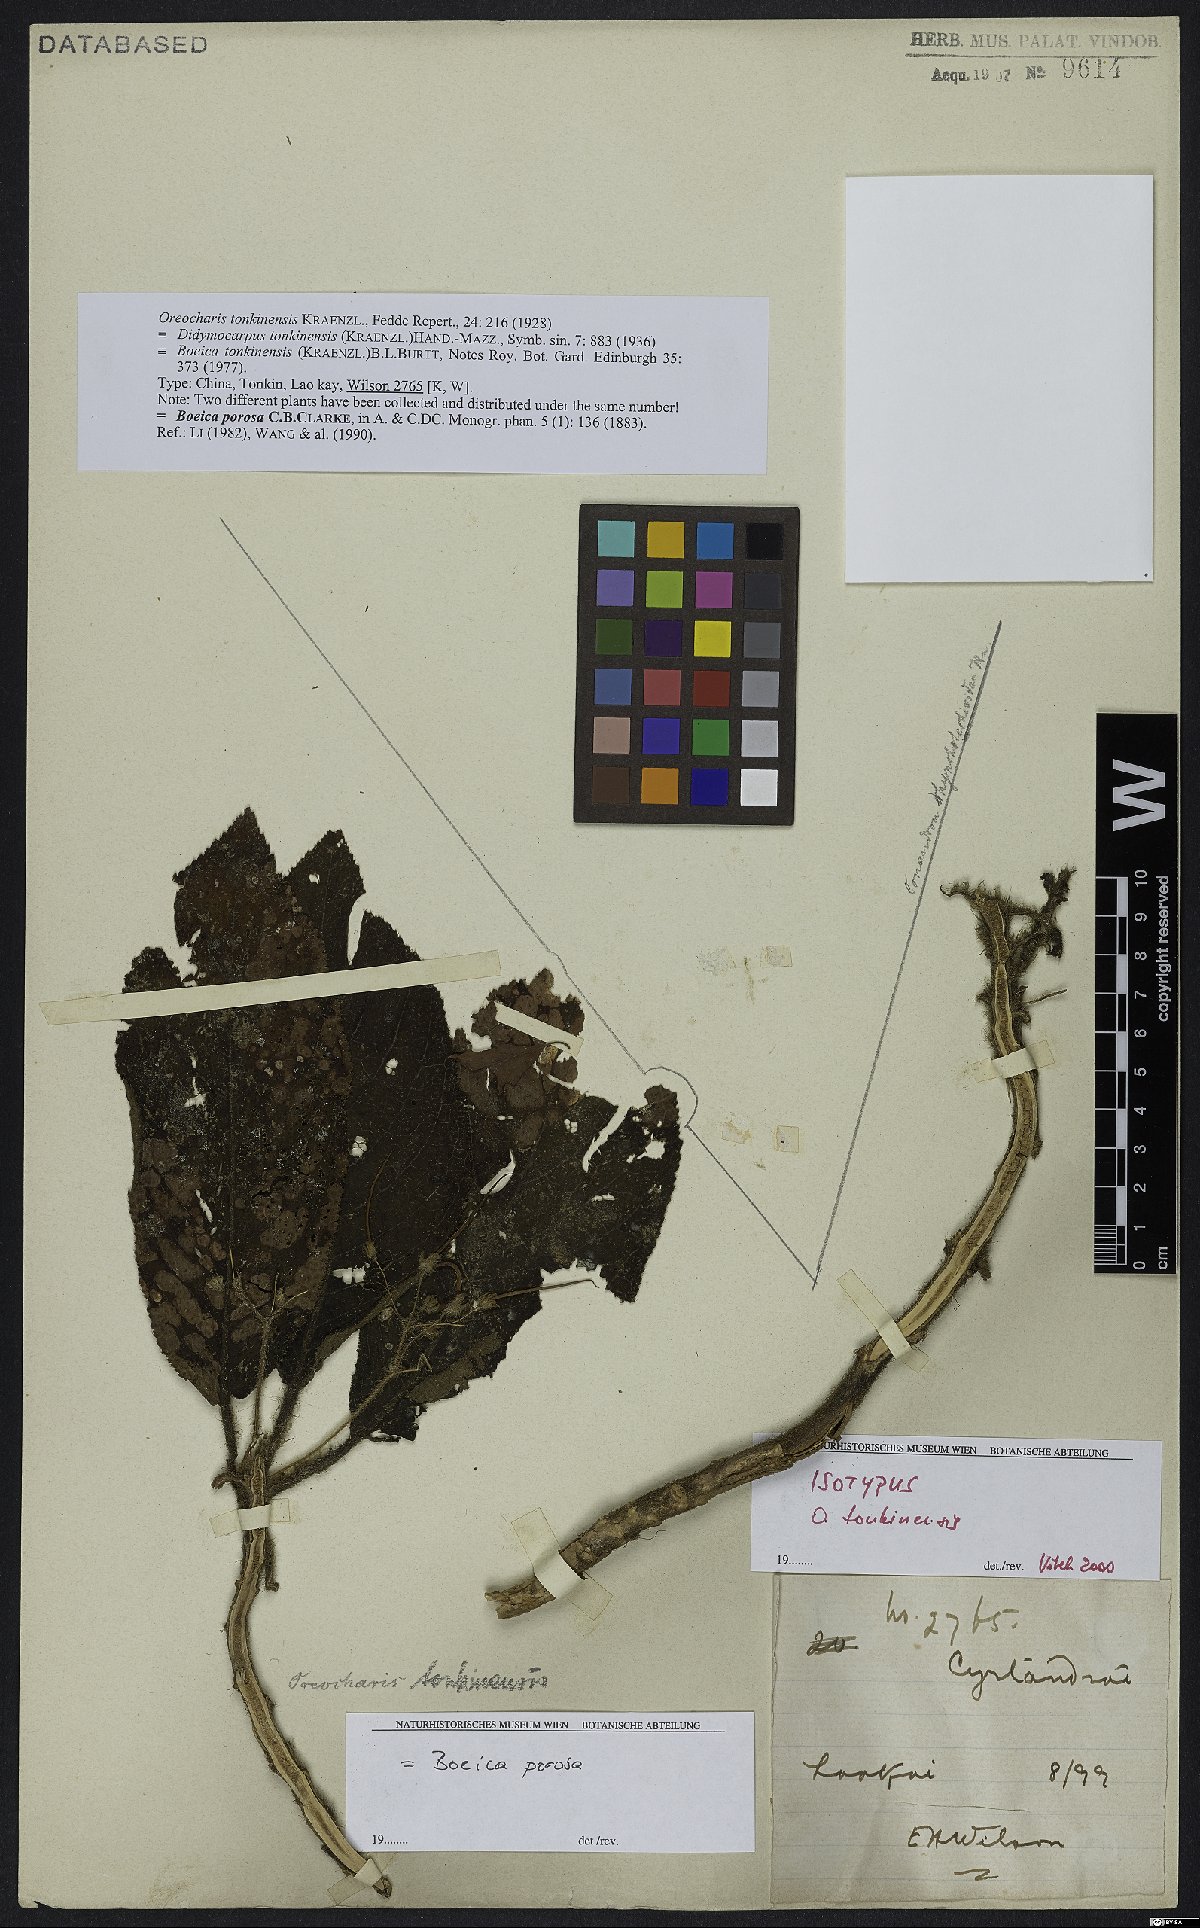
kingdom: Plantae
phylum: Tracheophyta
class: Magnoliopsida
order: Lamiales
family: Gesneriaceae
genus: Boeica
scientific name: Boeica porosa
